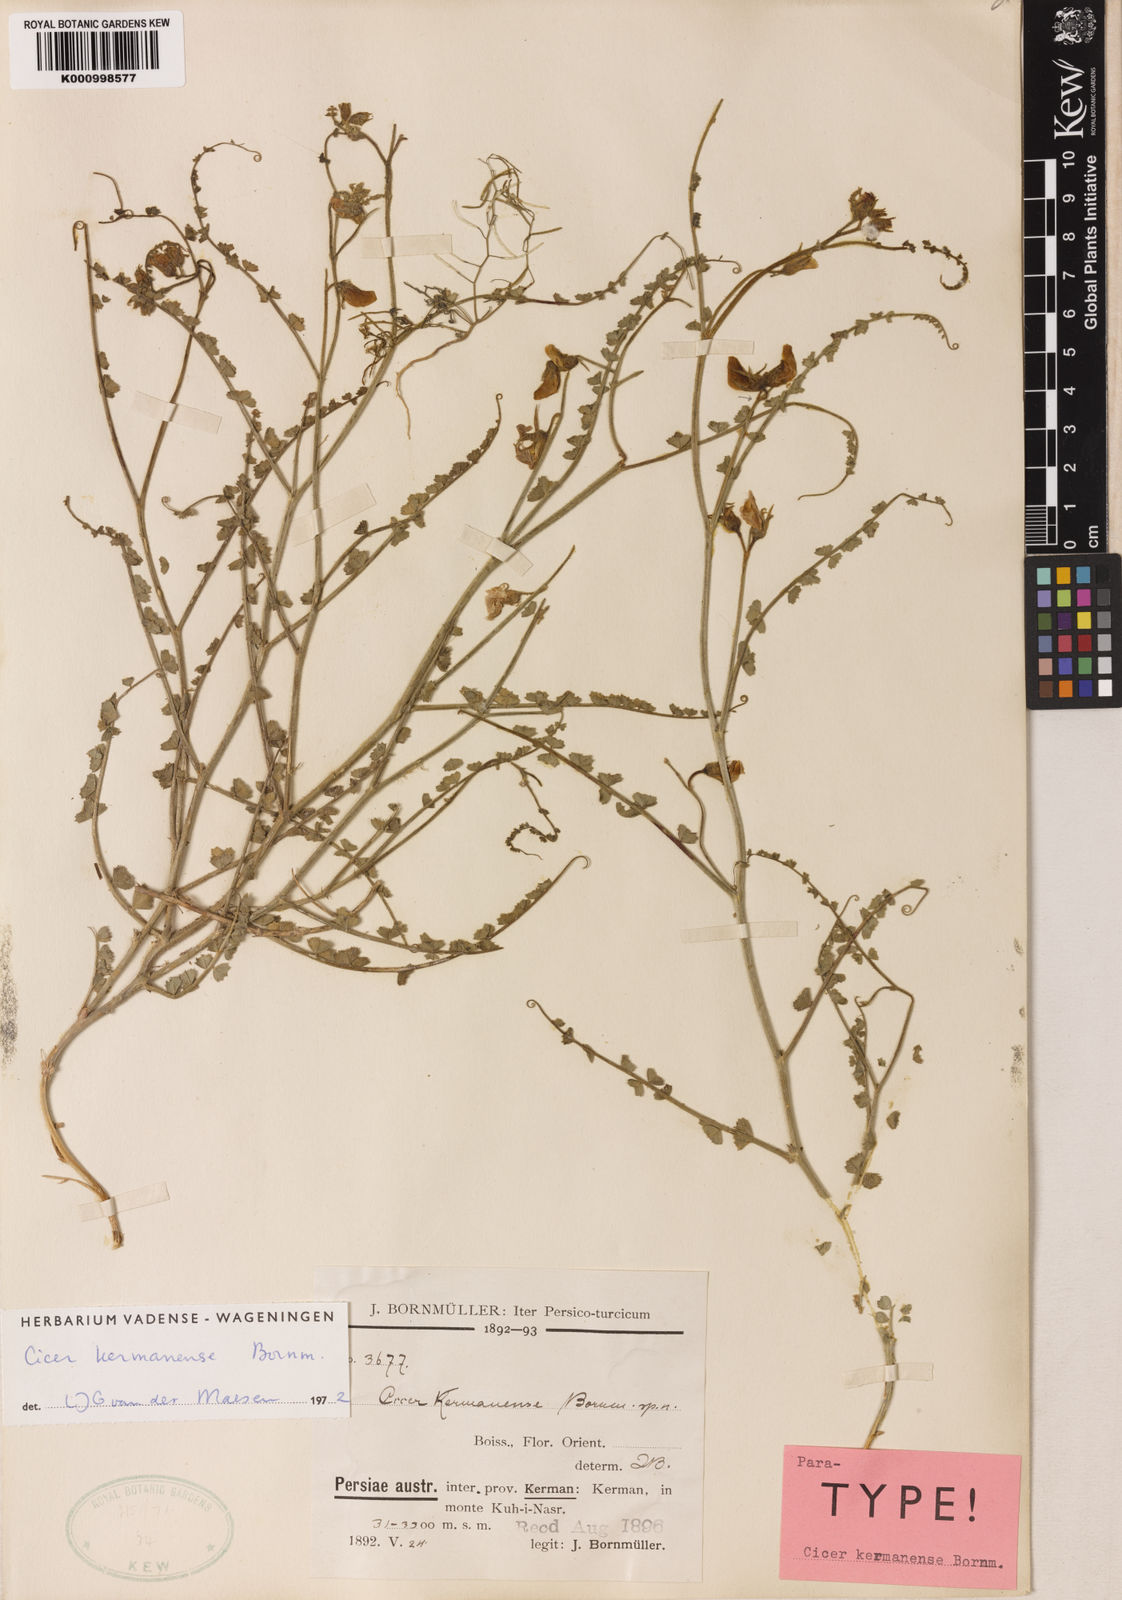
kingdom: Plantae
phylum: Tracheophyta
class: Magnoliopsida
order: Fabales
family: Fabaceae
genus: Cicer
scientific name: Cicer kermanense
